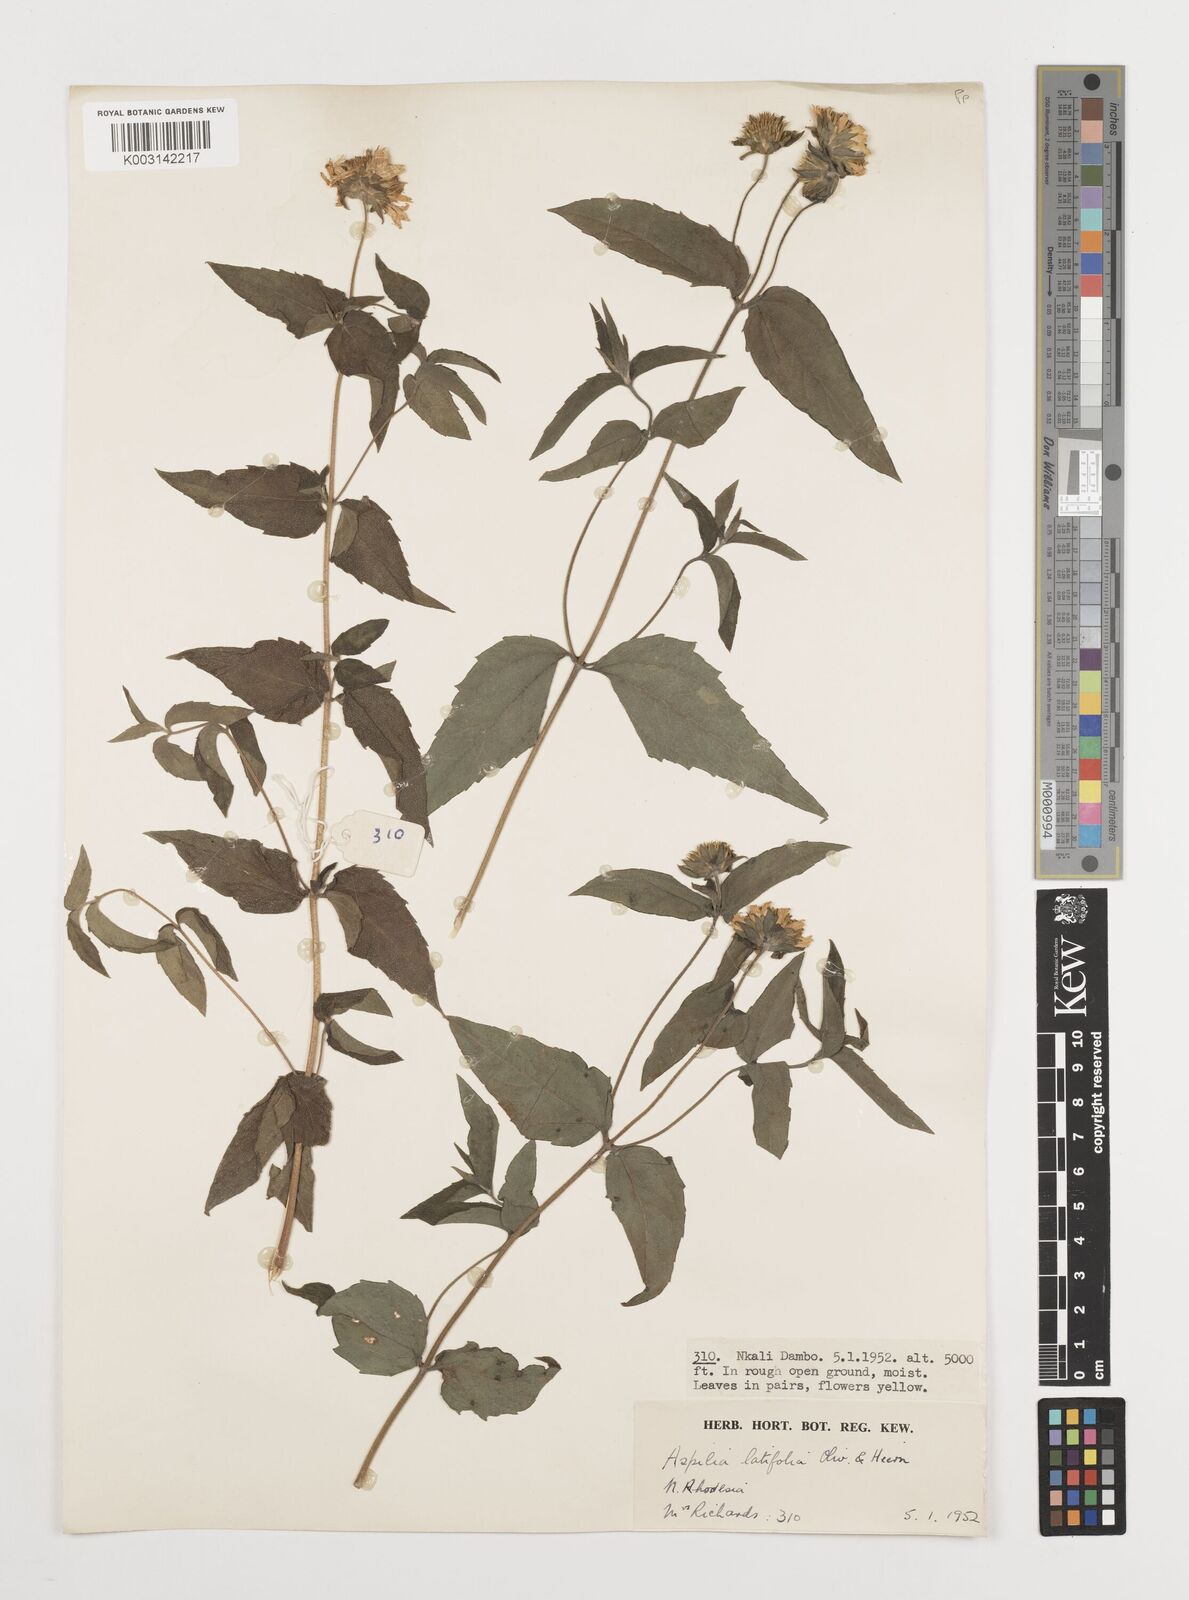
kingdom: Plantae
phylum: Tracheophyta
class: Magnoliopsida
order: Asterales
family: Asteraceae
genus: Aspilia
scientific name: Aspilia pluriseta
